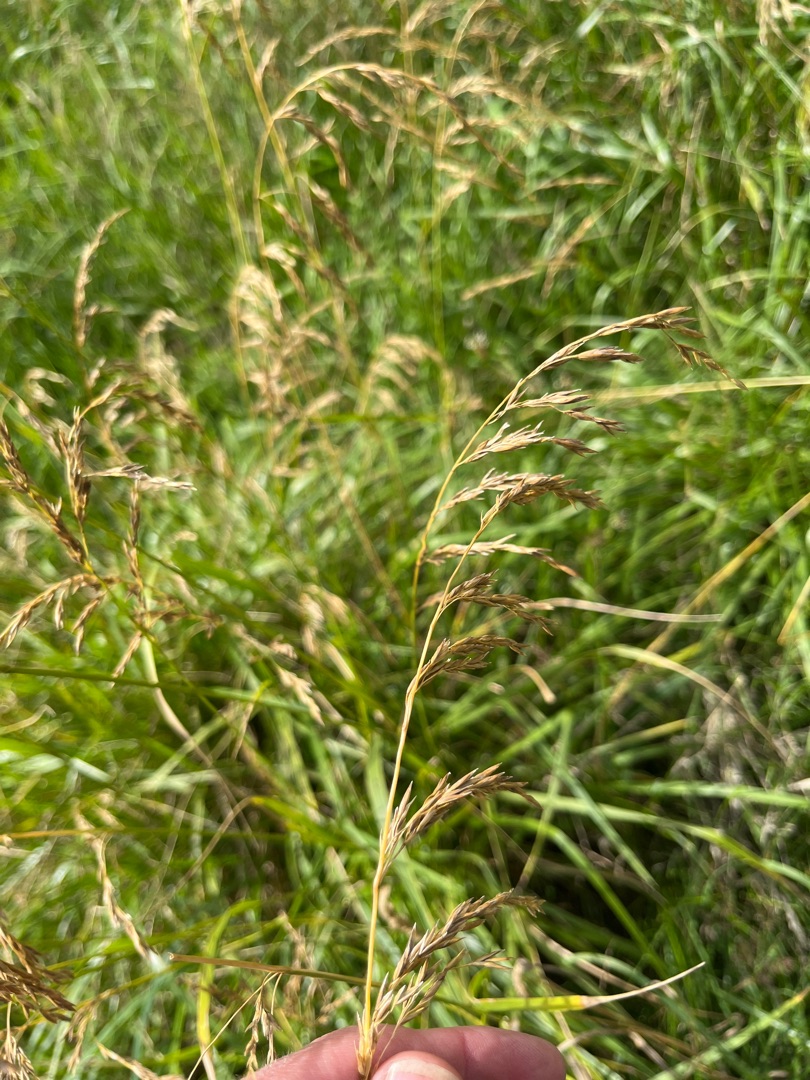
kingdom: Plantae
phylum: Tracheophyta
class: Liliopsida
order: Poales
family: Poaceae
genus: Festuca
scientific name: Festuca
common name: Svingelslægten
